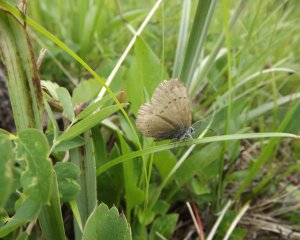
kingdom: Animalia
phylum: Arthropoda
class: Insecta
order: Lepidoptera
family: Lycaenidae
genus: Glaucopsyche
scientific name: Glaucopsyche lygdamus
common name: Silvery Blue
